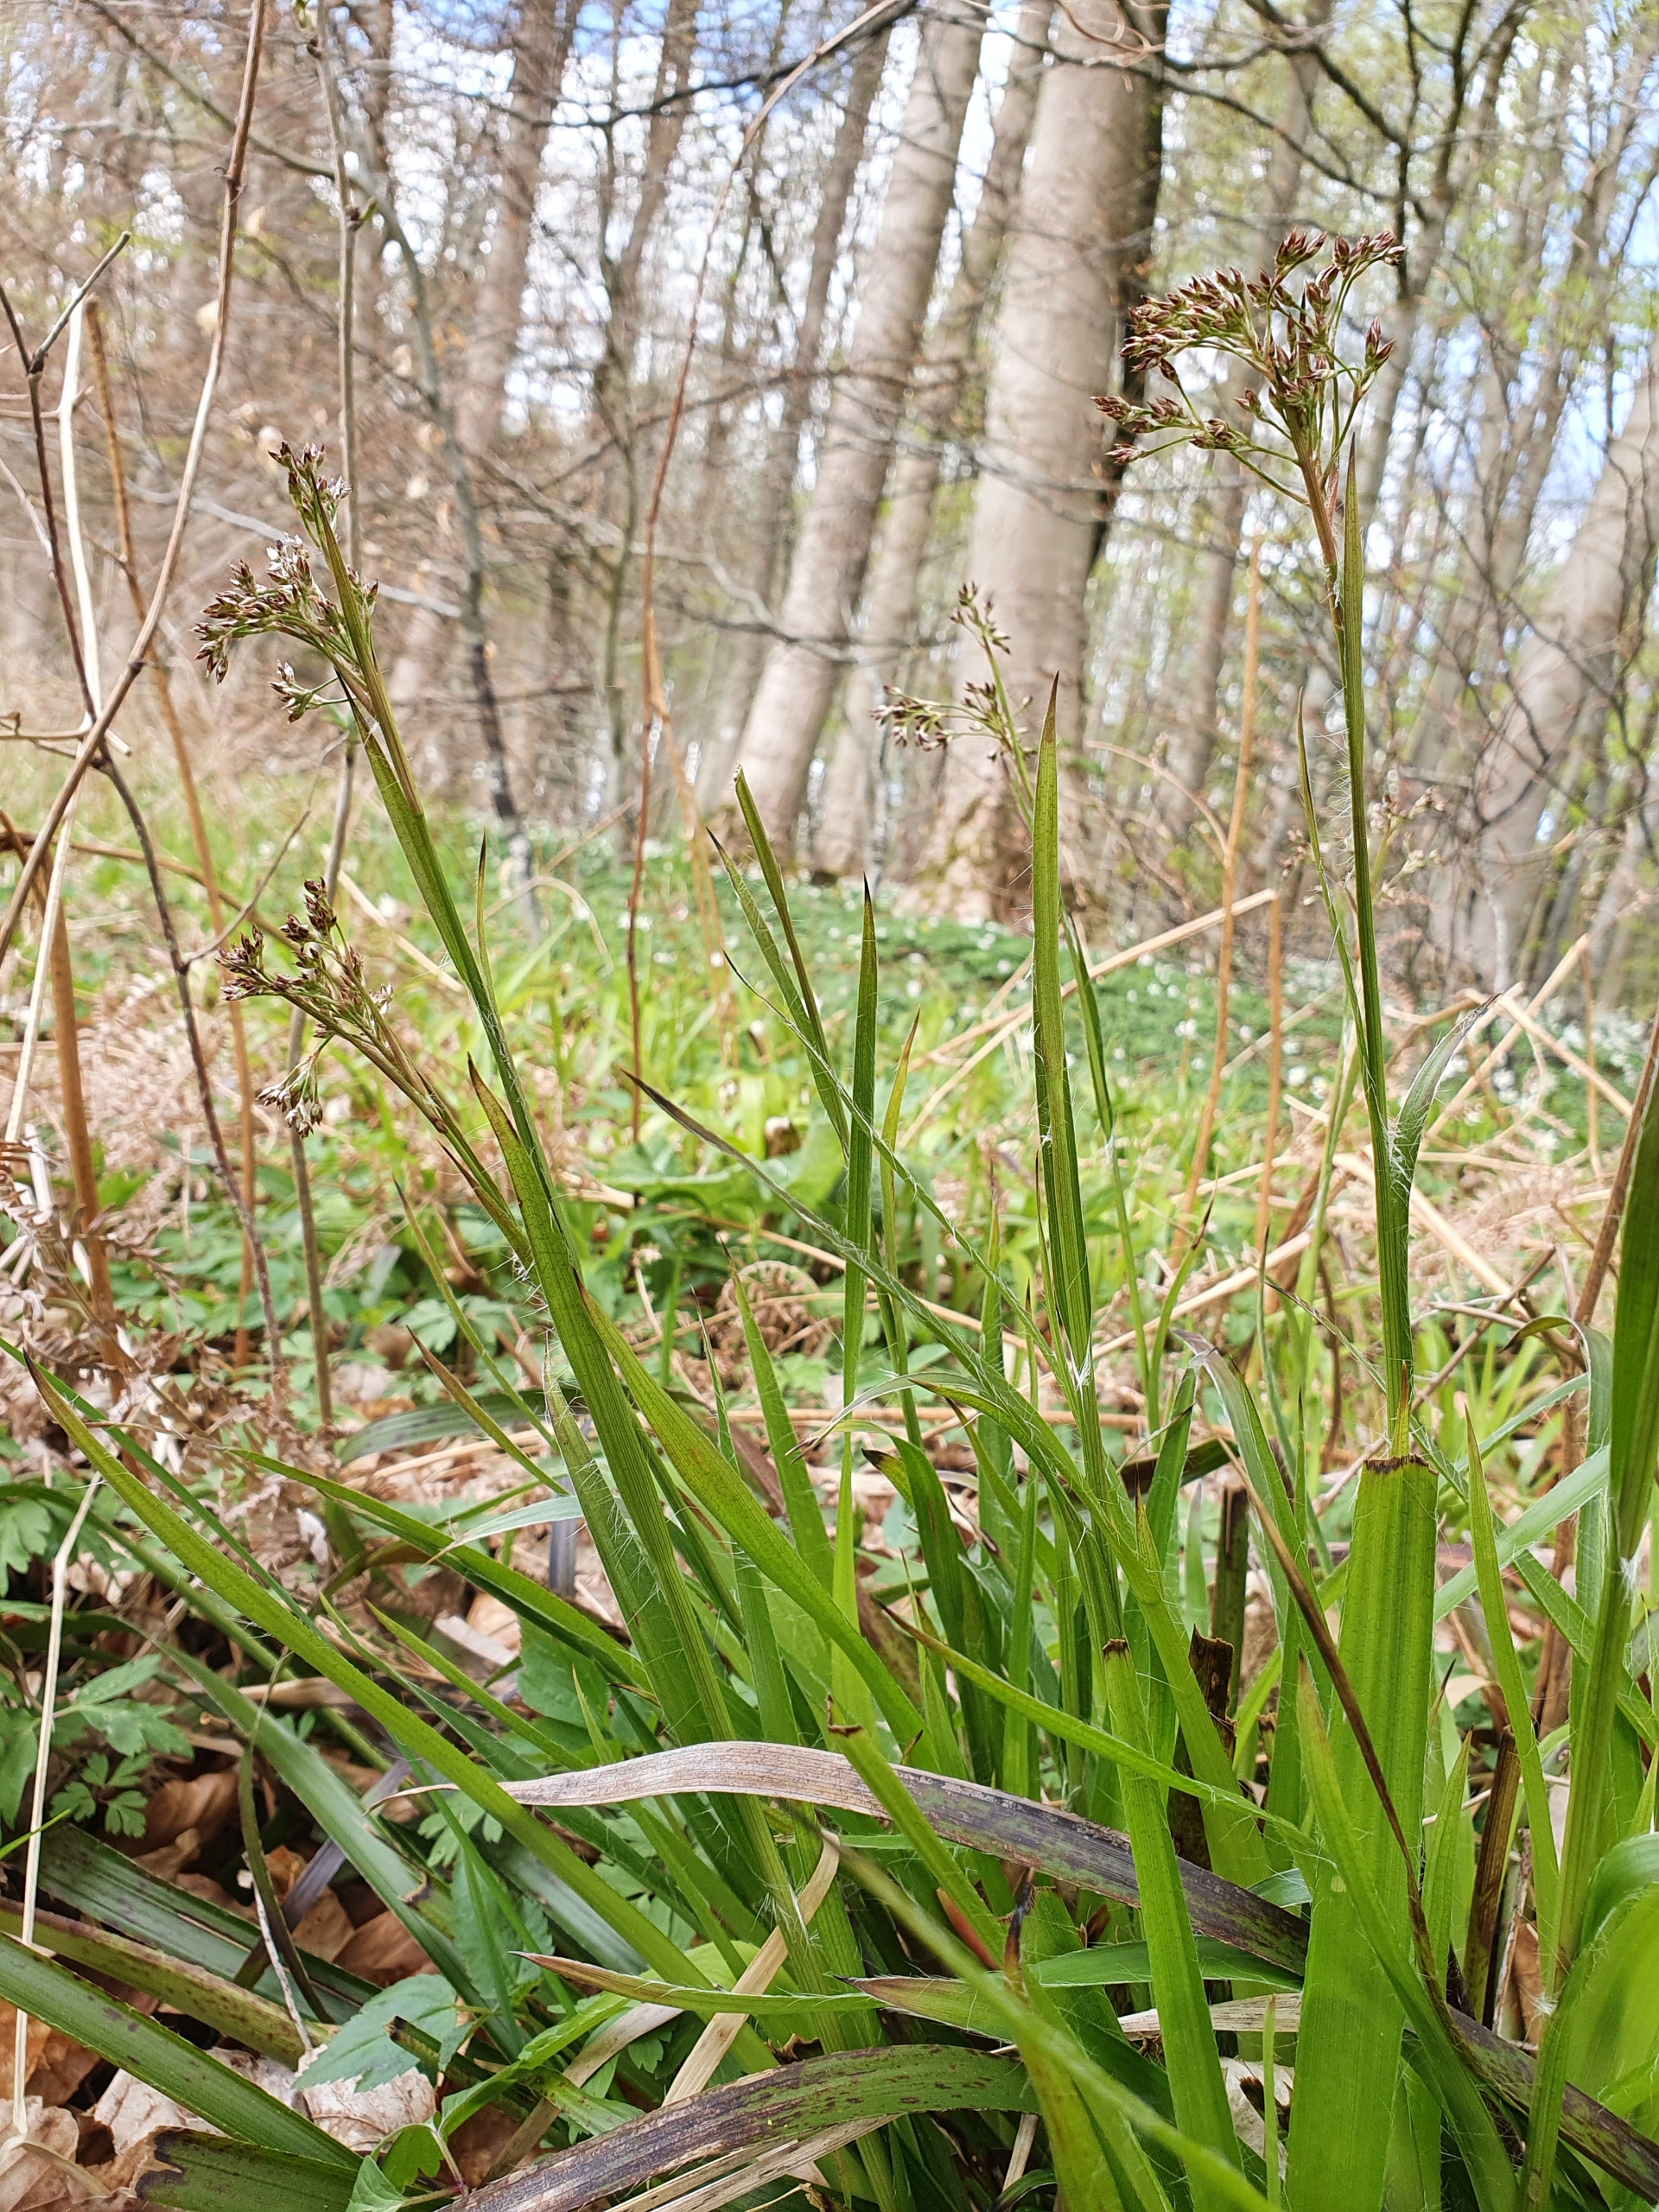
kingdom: Plantae
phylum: Tracheophyta
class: Liliopsida
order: Poales
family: Juncaceae
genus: Luzula
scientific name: Luzula sylvatica
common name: Stor frytle
